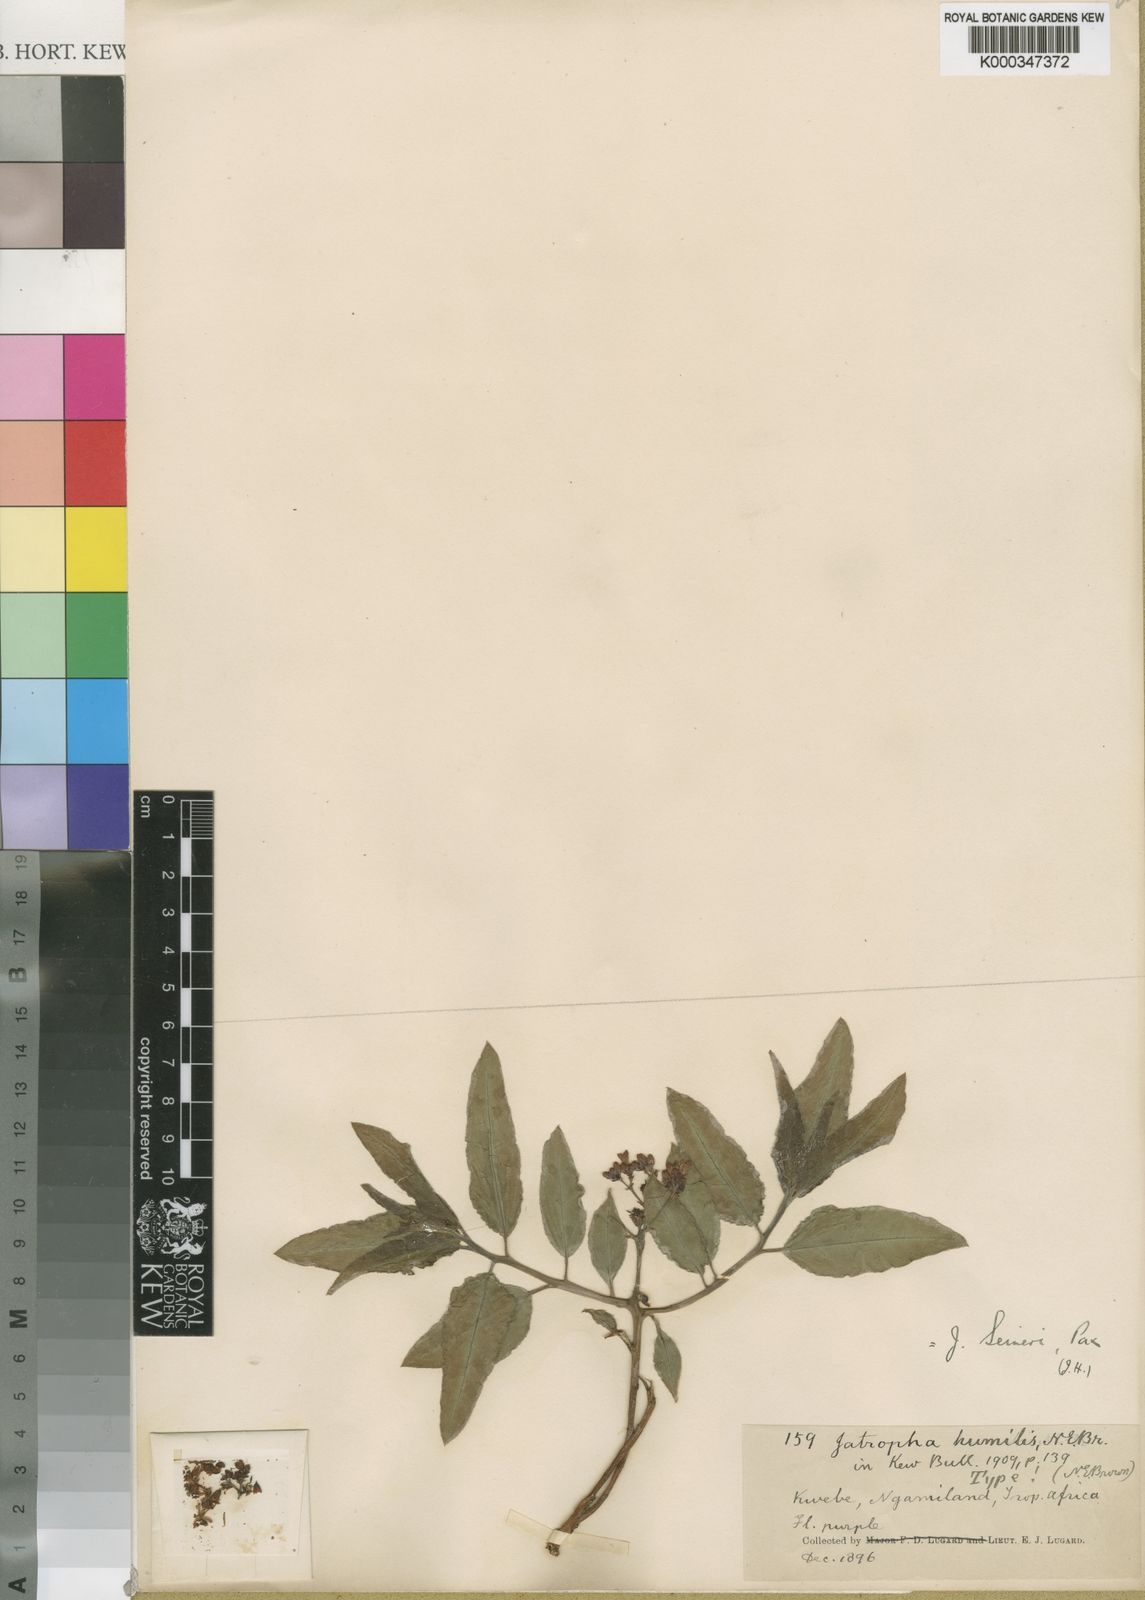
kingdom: Plantae
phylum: Tracheophyta
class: Magnoliopsida
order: Malpighiales
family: Euphorbiaceae
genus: Jatropha
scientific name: Jatropha seineri
